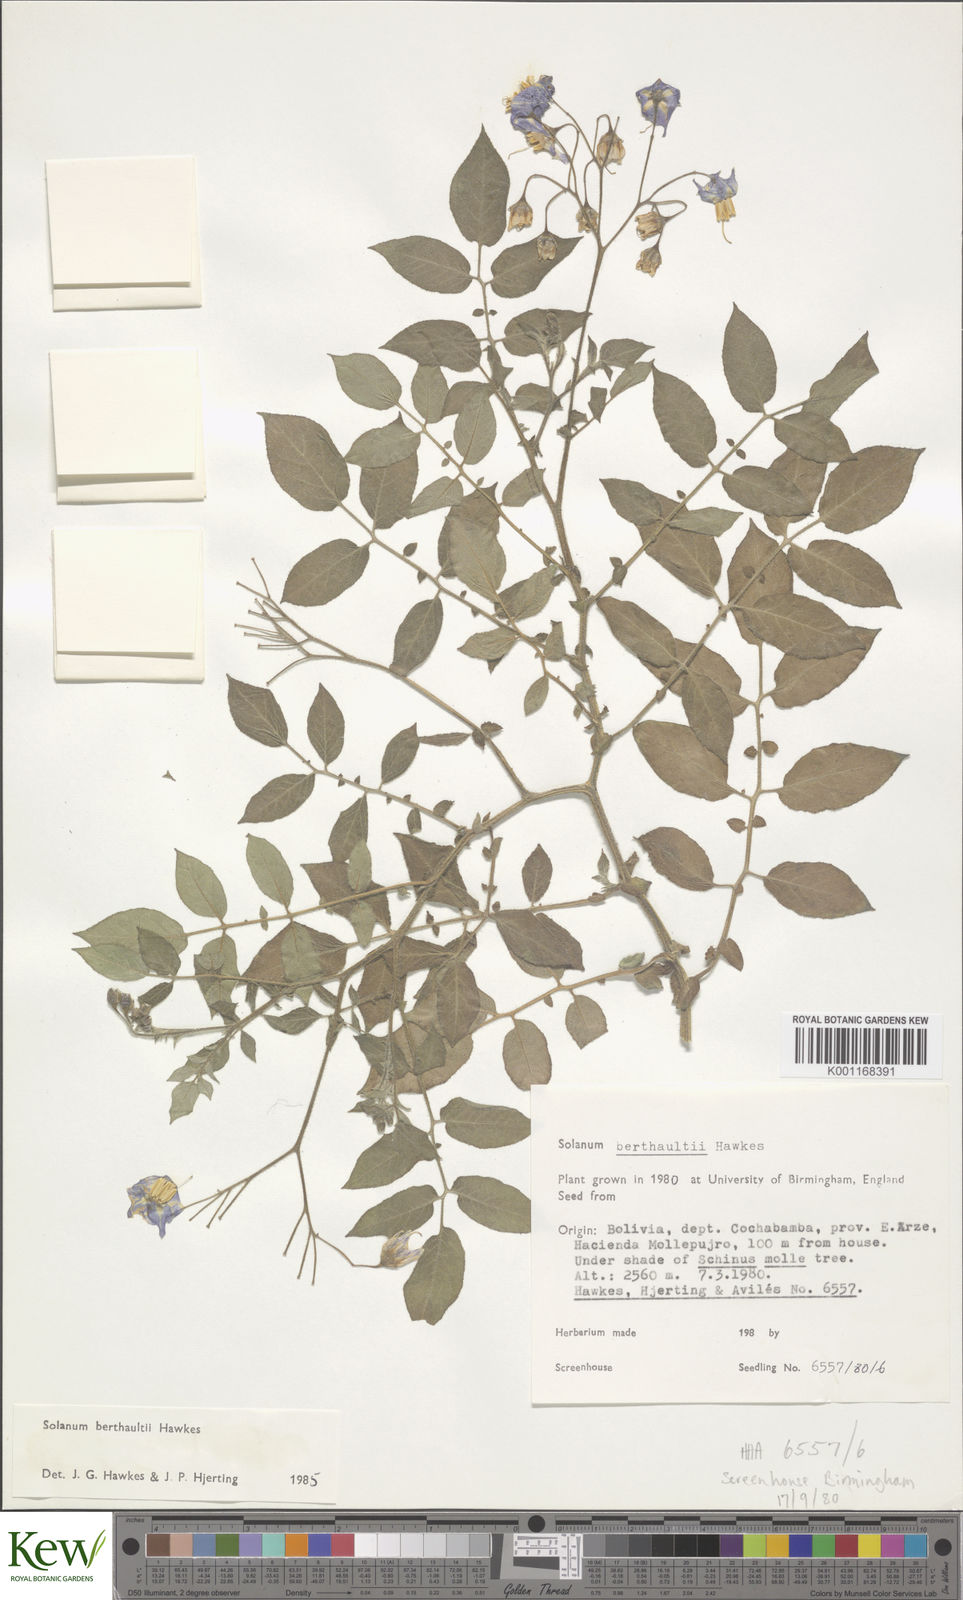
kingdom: Plantae
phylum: Tracheophyta
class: Magnoliopsida
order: Solanales
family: Solanaceae
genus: Solanum
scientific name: Solanum berthaultii
